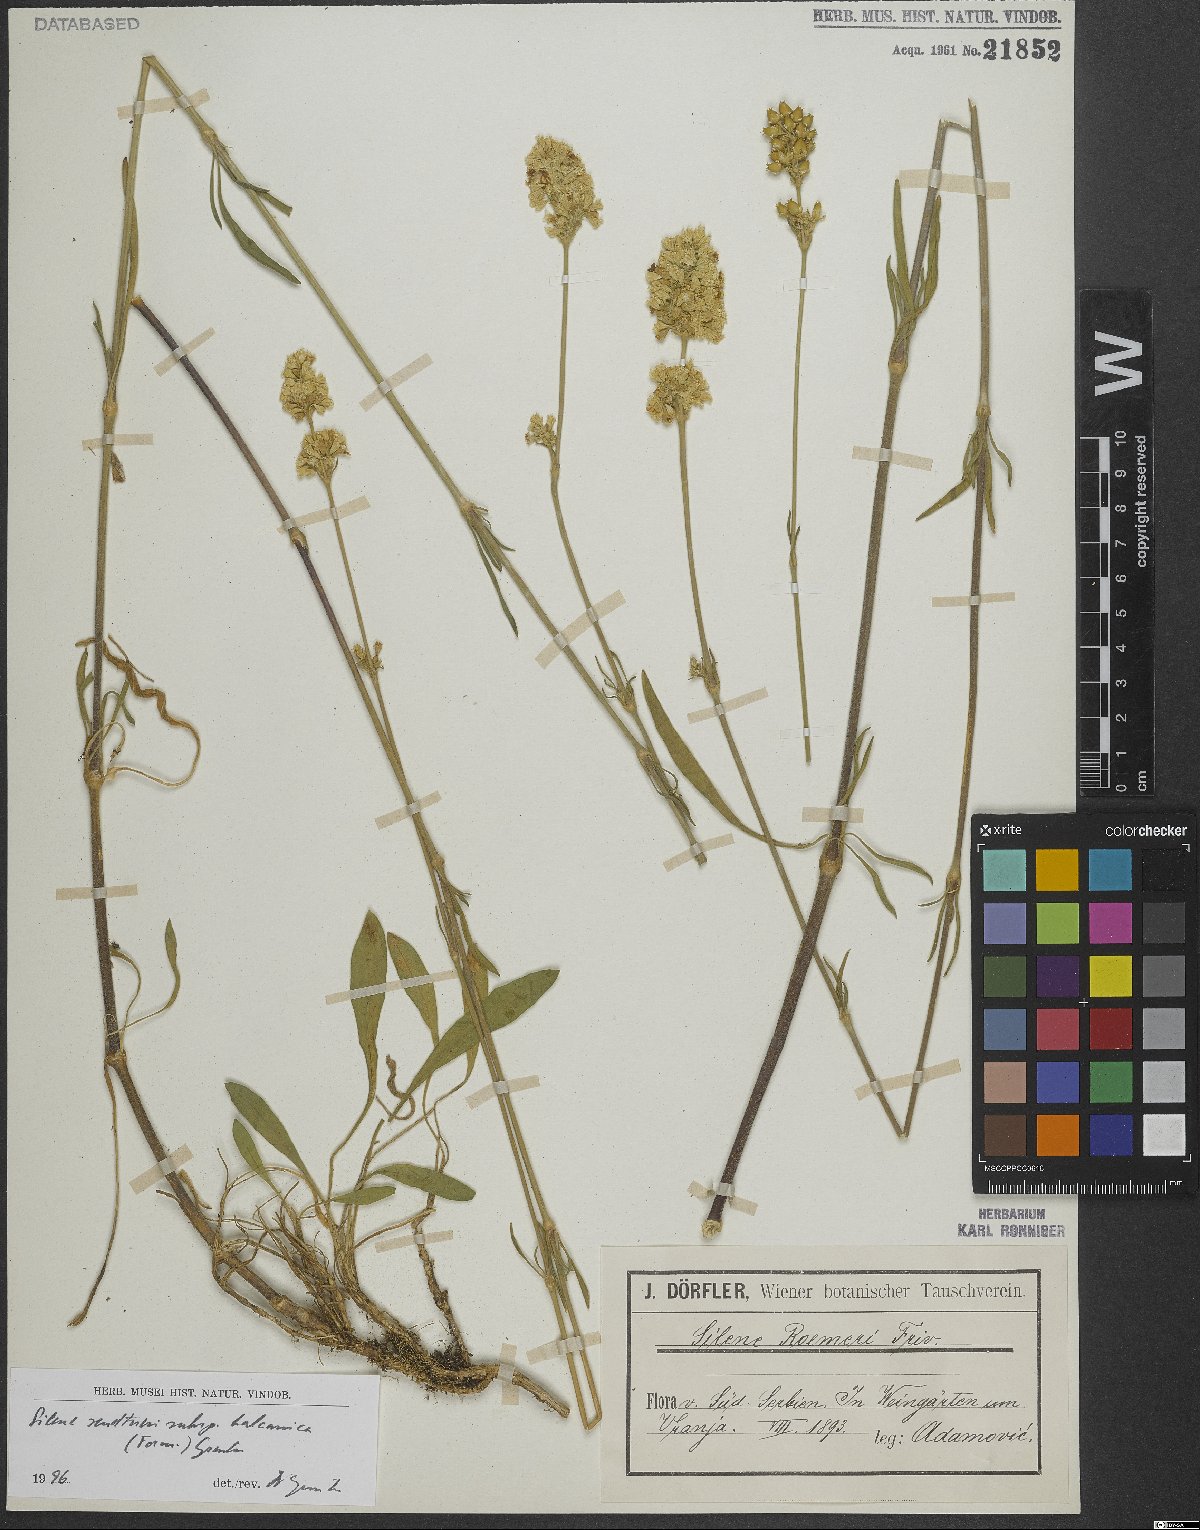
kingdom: Plantae
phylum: Tracheophyta
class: Magnoliopsida
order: Caryophyllales
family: Caryophyllaceae
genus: Silene
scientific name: Silene sendtneri
